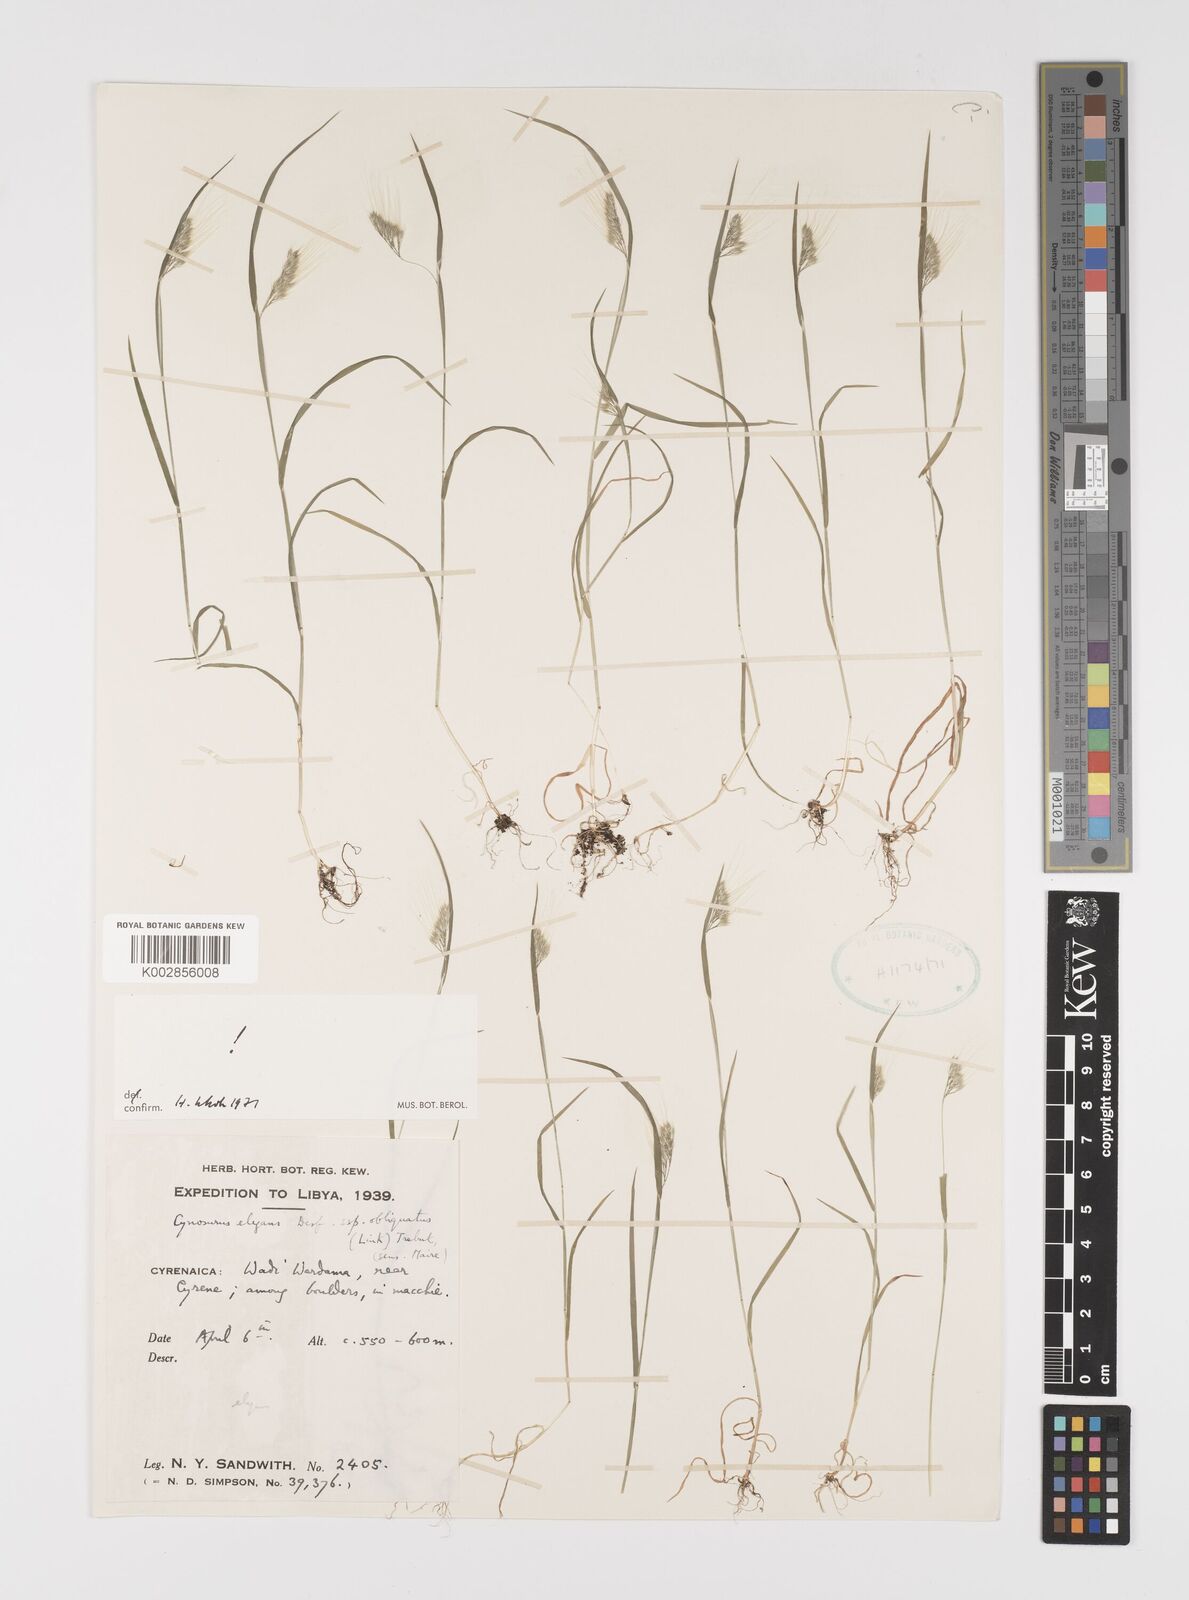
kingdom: Plantae
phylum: Tracheophyta
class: Liliopsida
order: Poales
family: Poaceae
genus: Cynosurus
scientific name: Cynosurus elegans
